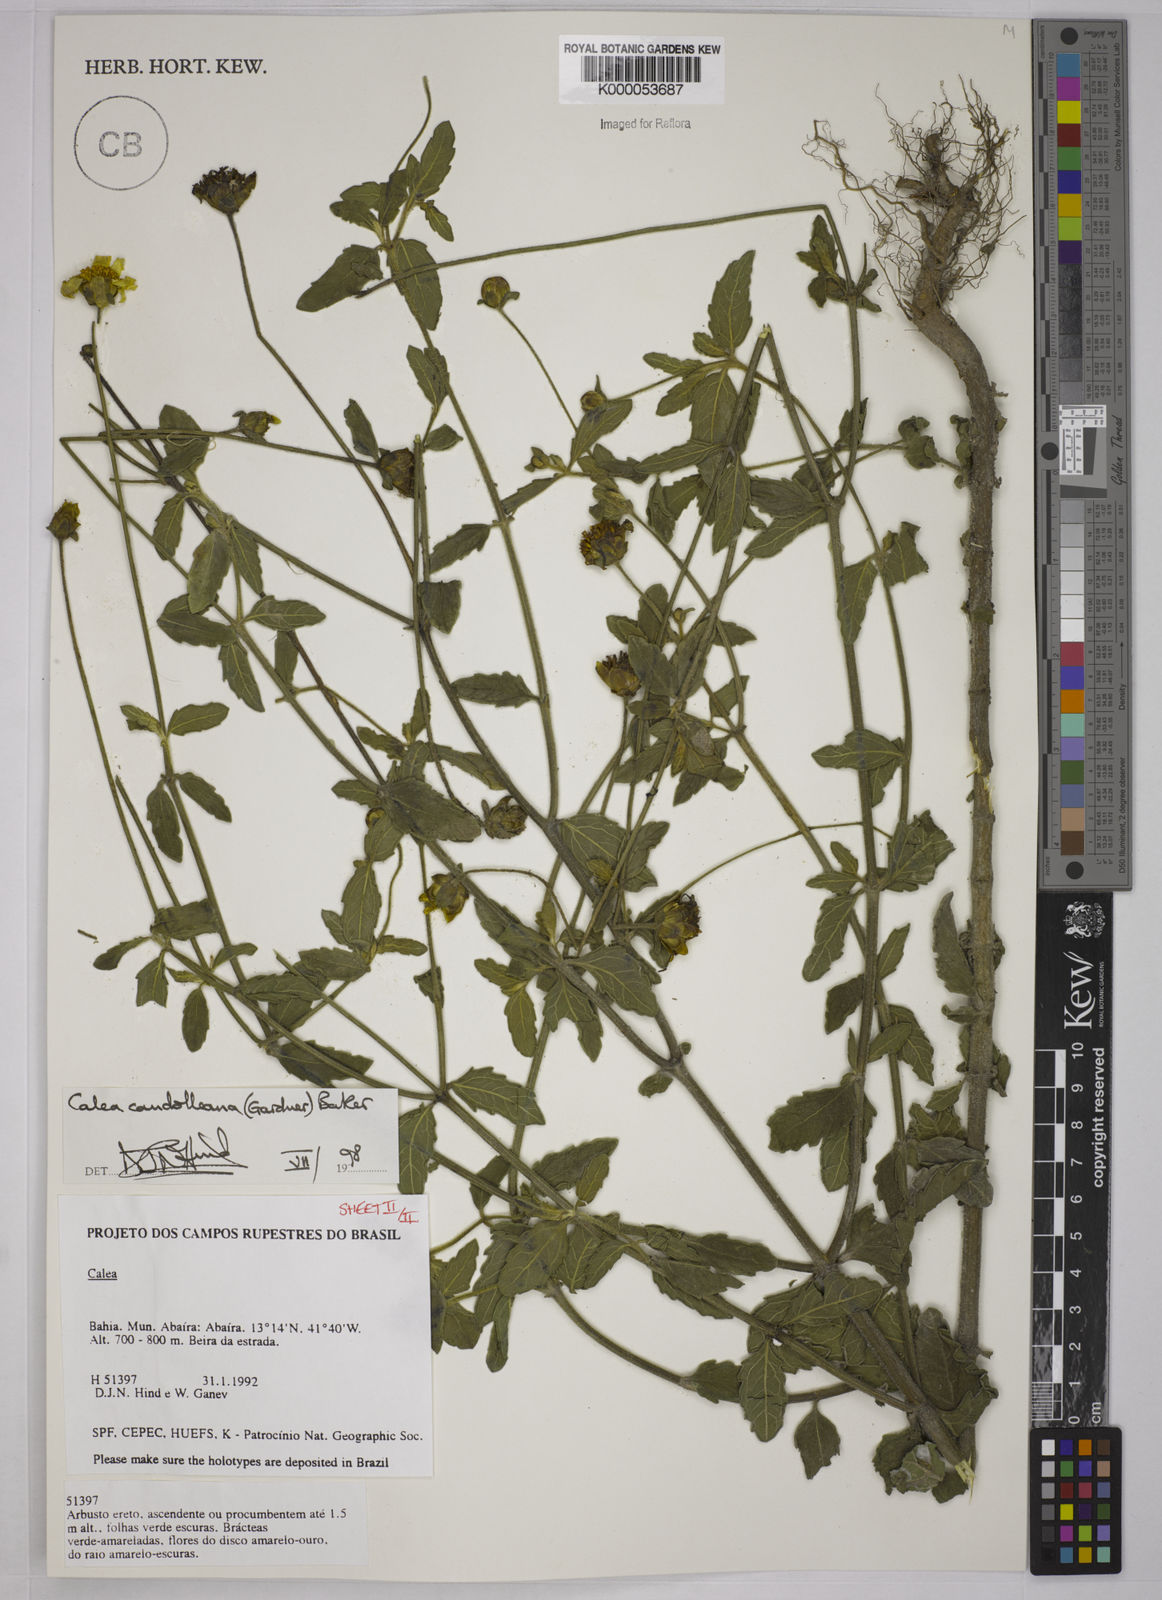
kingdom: Plantae
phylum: Tracheophyta
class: Magnoliopsida
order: Asterales
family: Asteraceae
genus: Calea
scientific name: Calea candolleana
